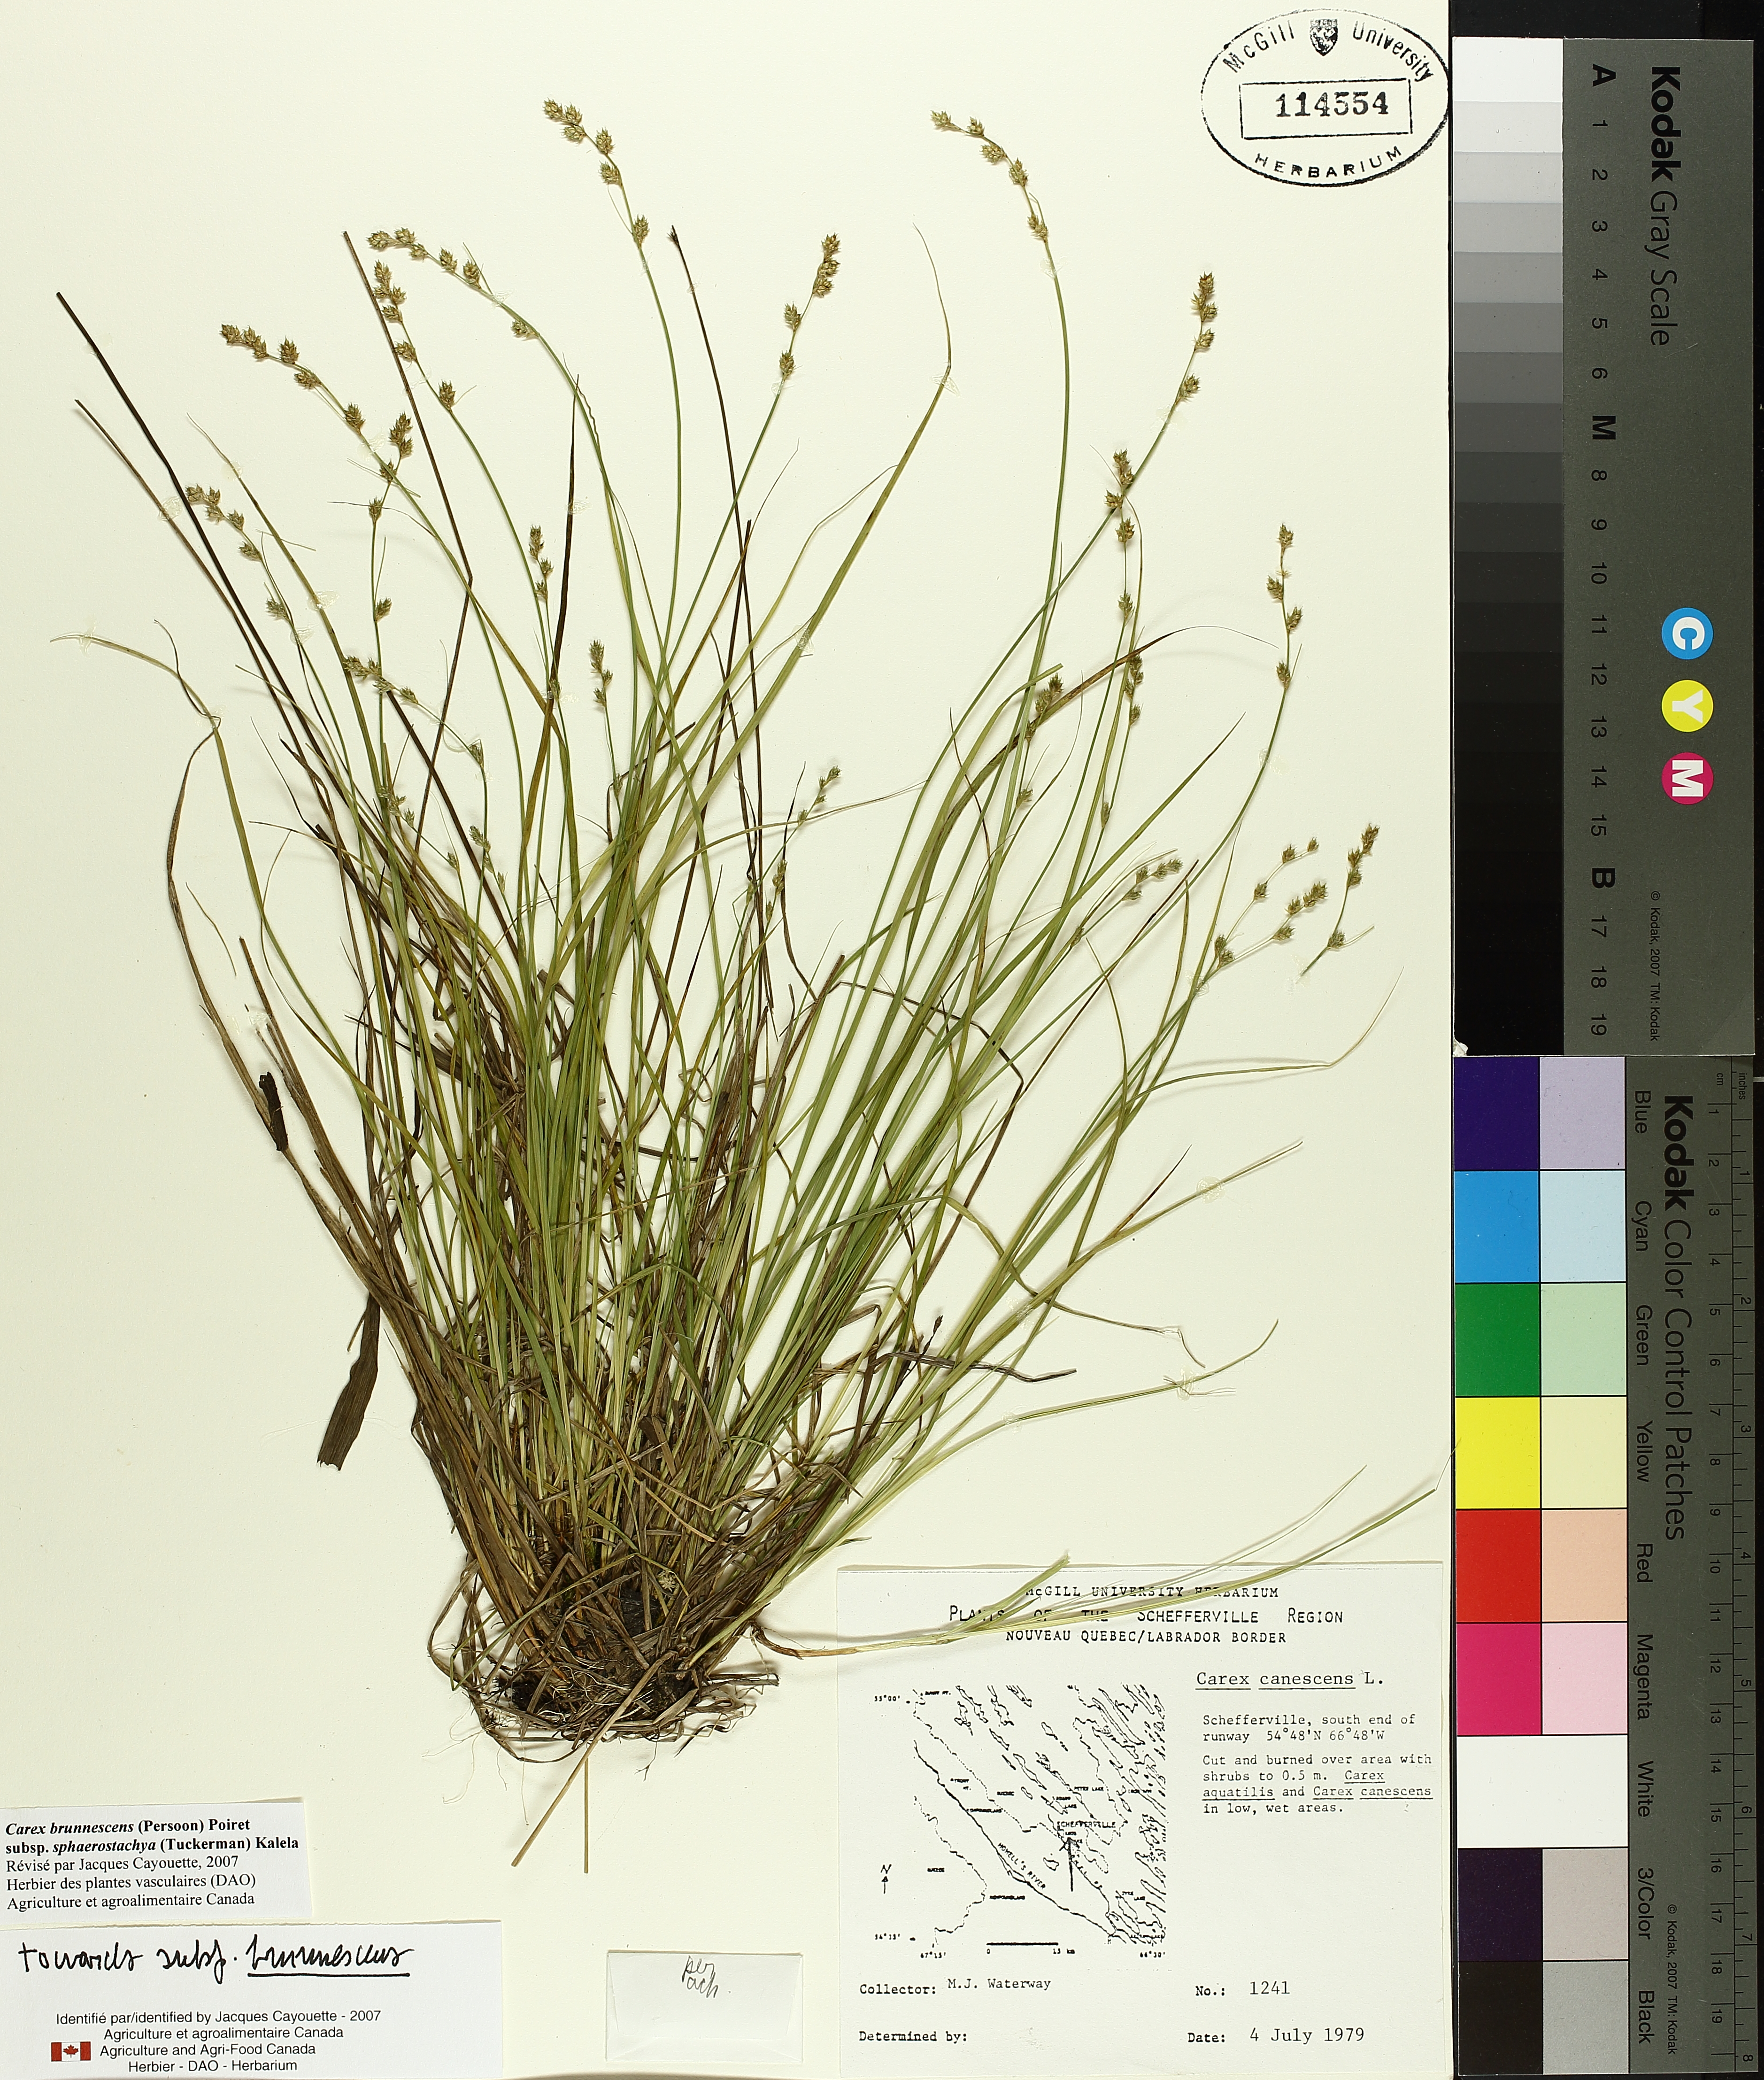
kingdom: Plantae
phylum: Tracheophyta
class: Liliopsida
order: Poales
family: Cyperaceae
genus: Carex
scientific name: Carex canescens
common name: White sedge
